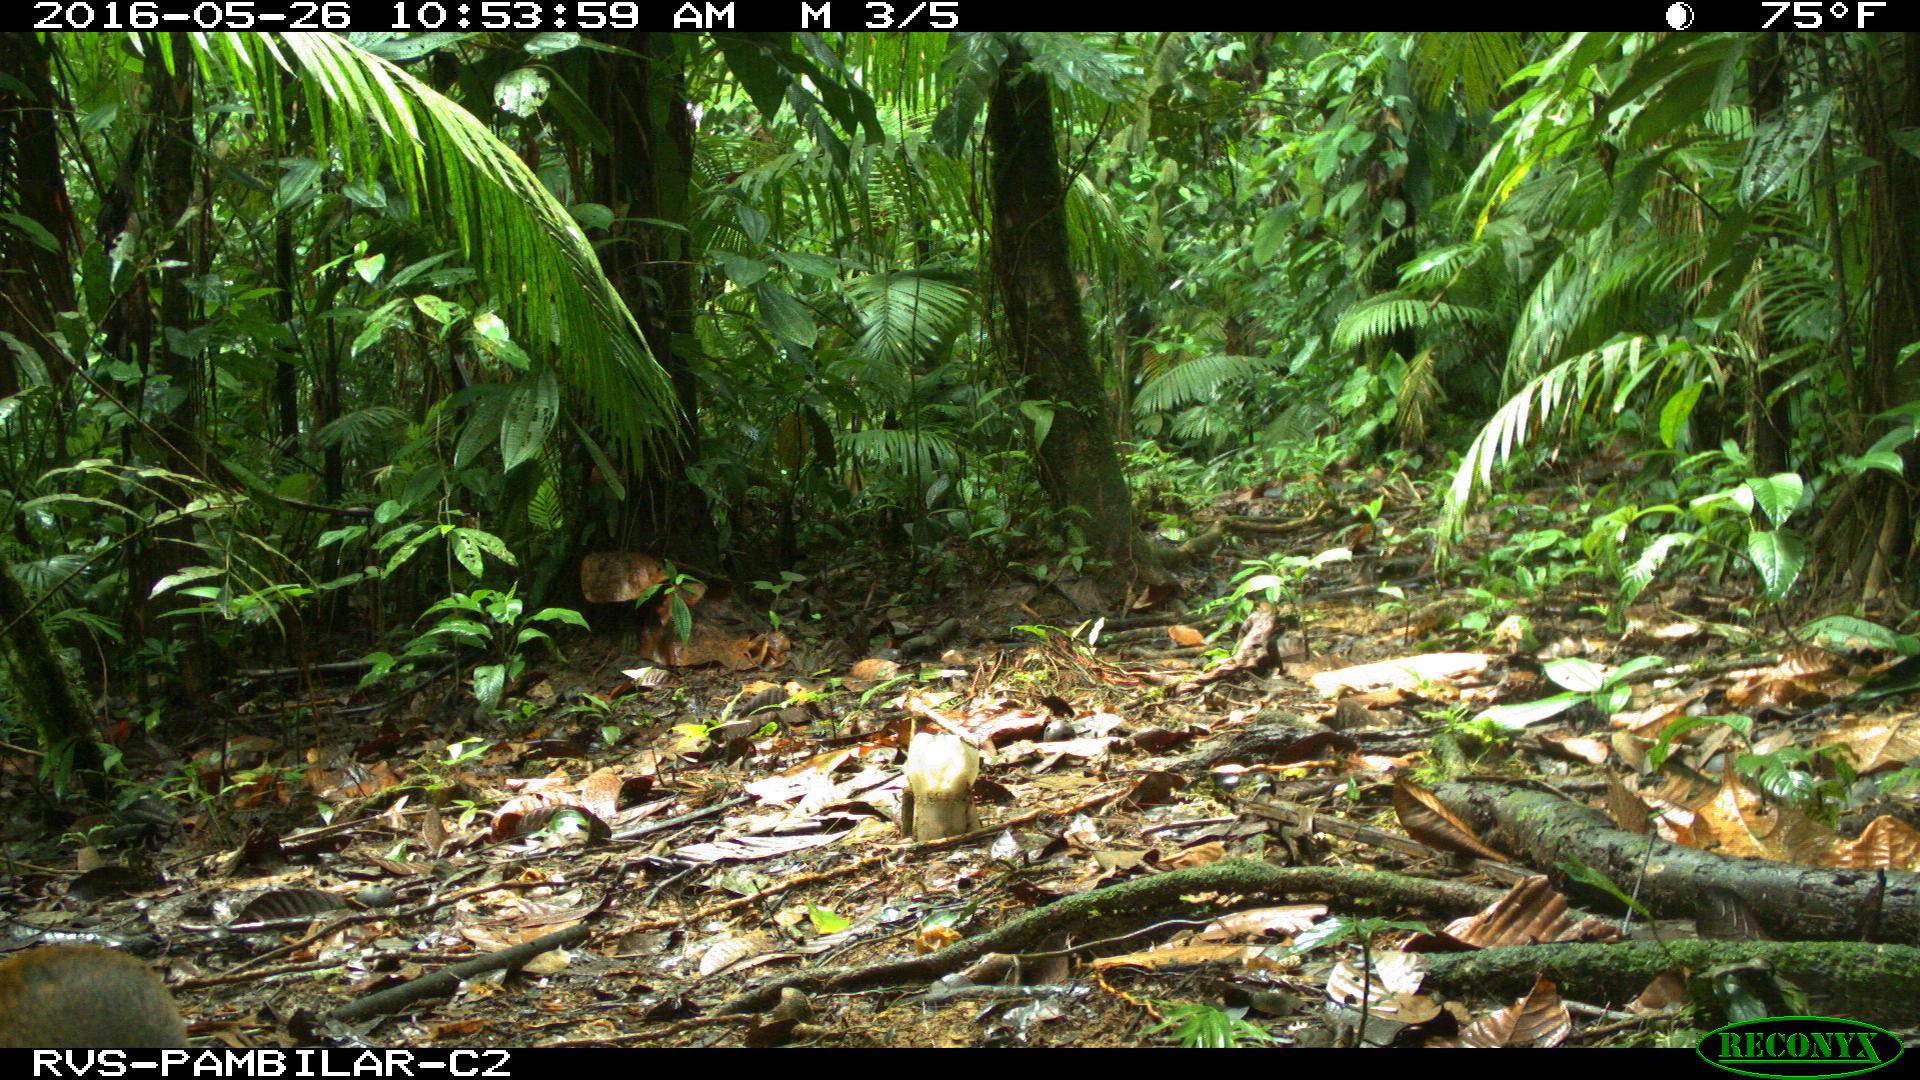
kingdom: Animalia
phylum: Chordata
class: Mammalia
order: Rodentia
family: Dasyproctidae
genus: Dasyprocta
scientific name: Dasyprocta punctata
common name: Central american agouti
